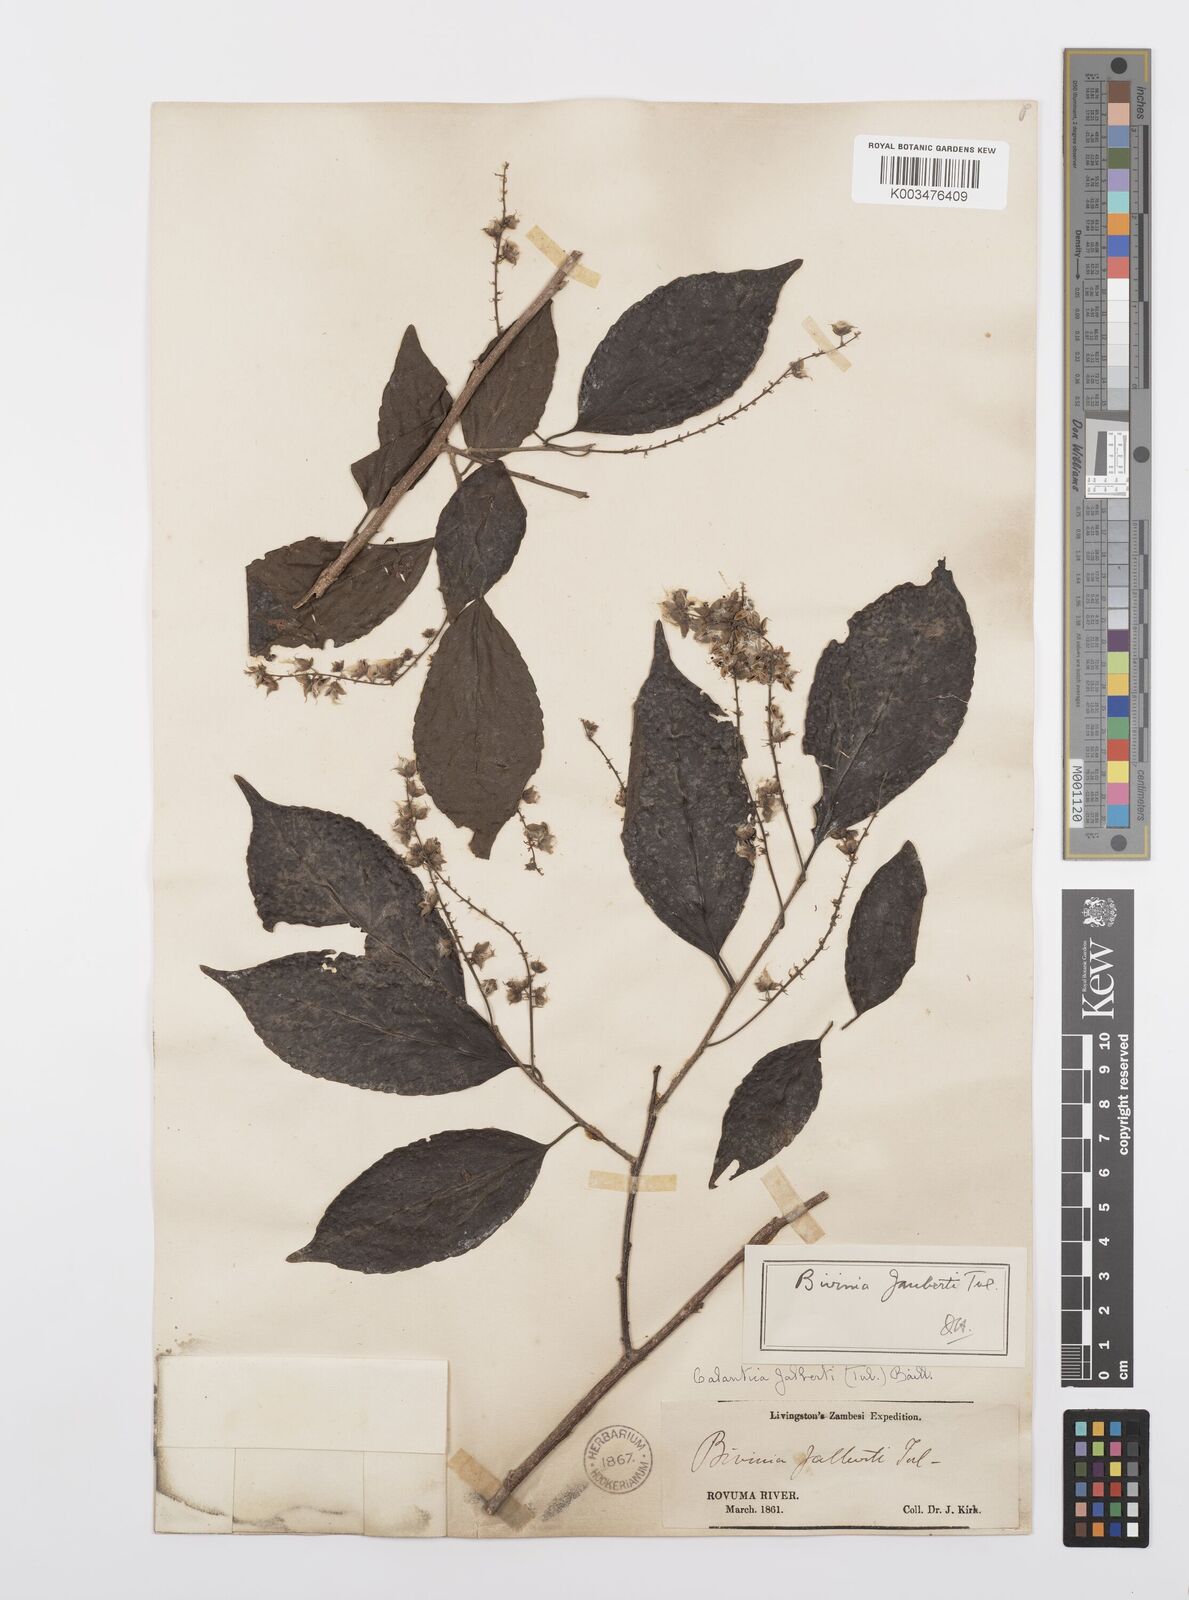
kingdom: Plantae
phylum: Tracheophyta
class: Magnoliopsida
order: Malpighiales
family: Salicaceae
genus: Bivinia
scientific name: Bivinia jalbertii
